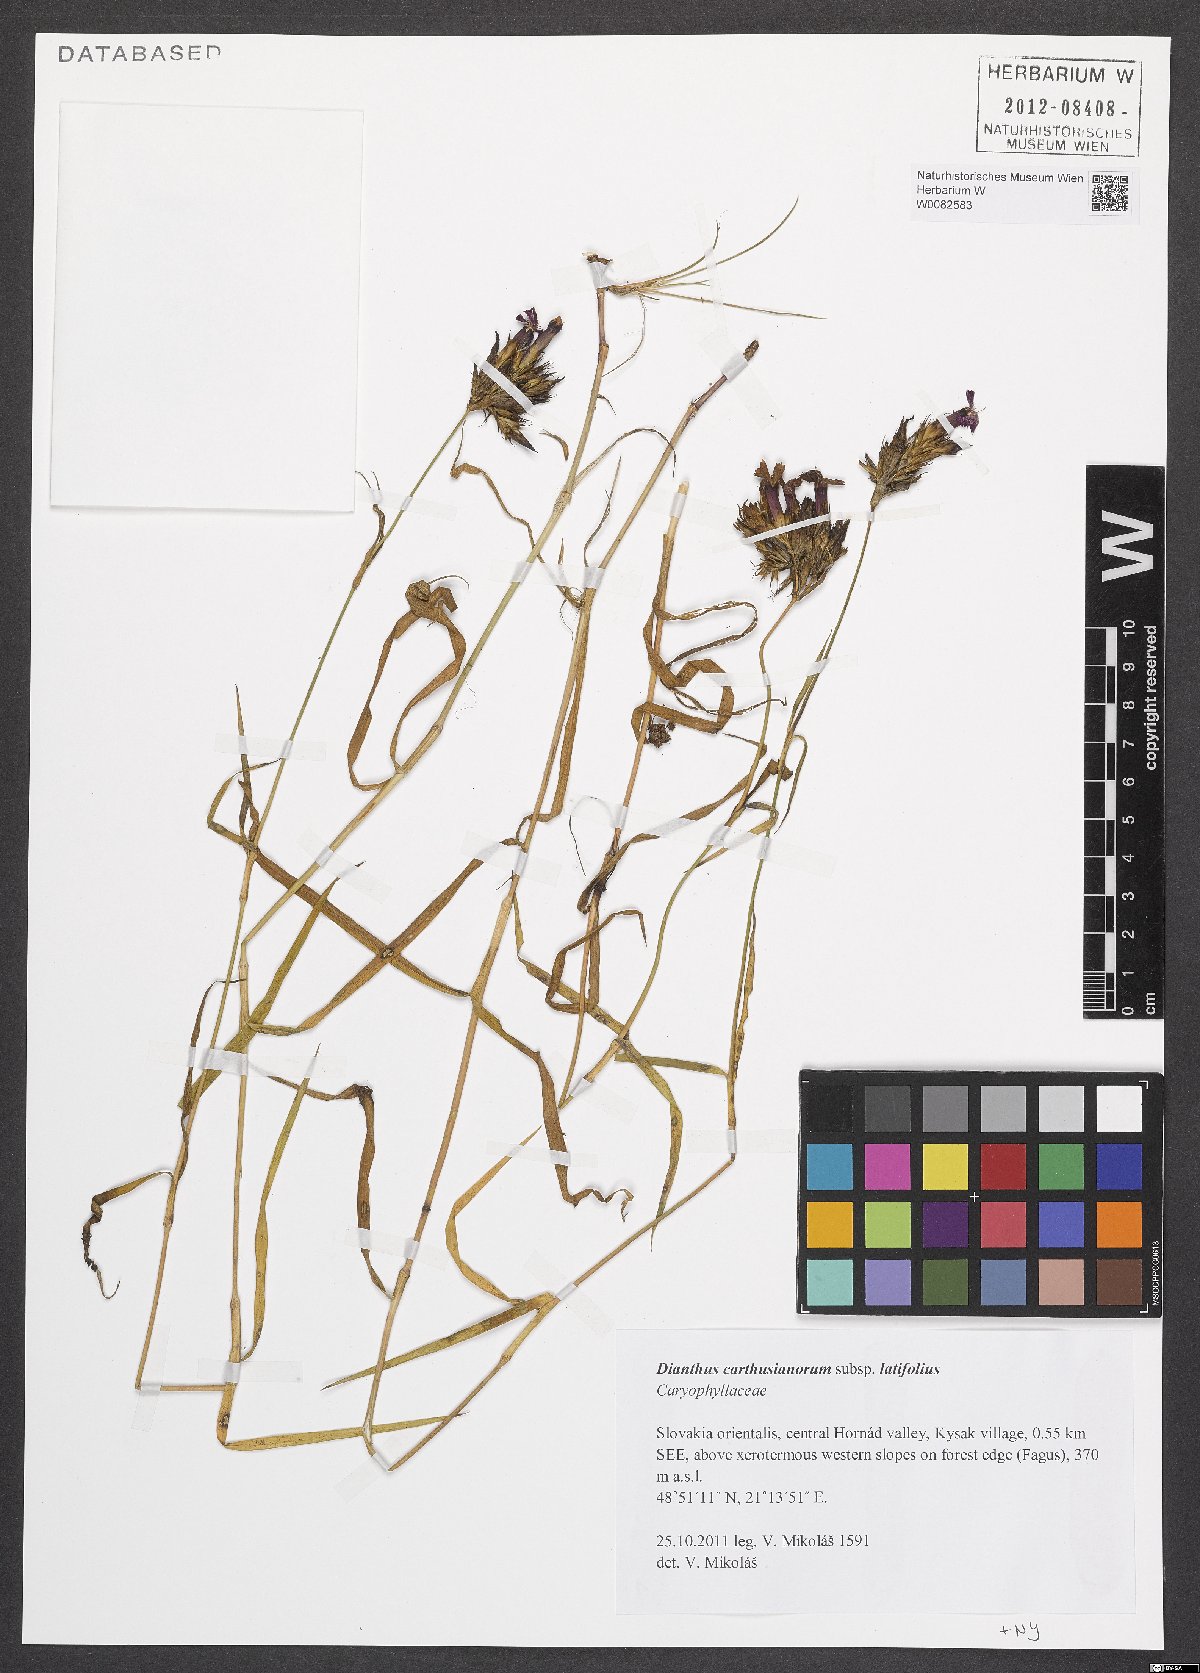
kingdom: Plantae
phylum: Tracheophyta
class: Magnoliopsida
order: Caryophyllales
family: Caryophyllaceae
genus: Dianthus
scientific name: Dianthus carthusianorum
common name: Carthusian pink
